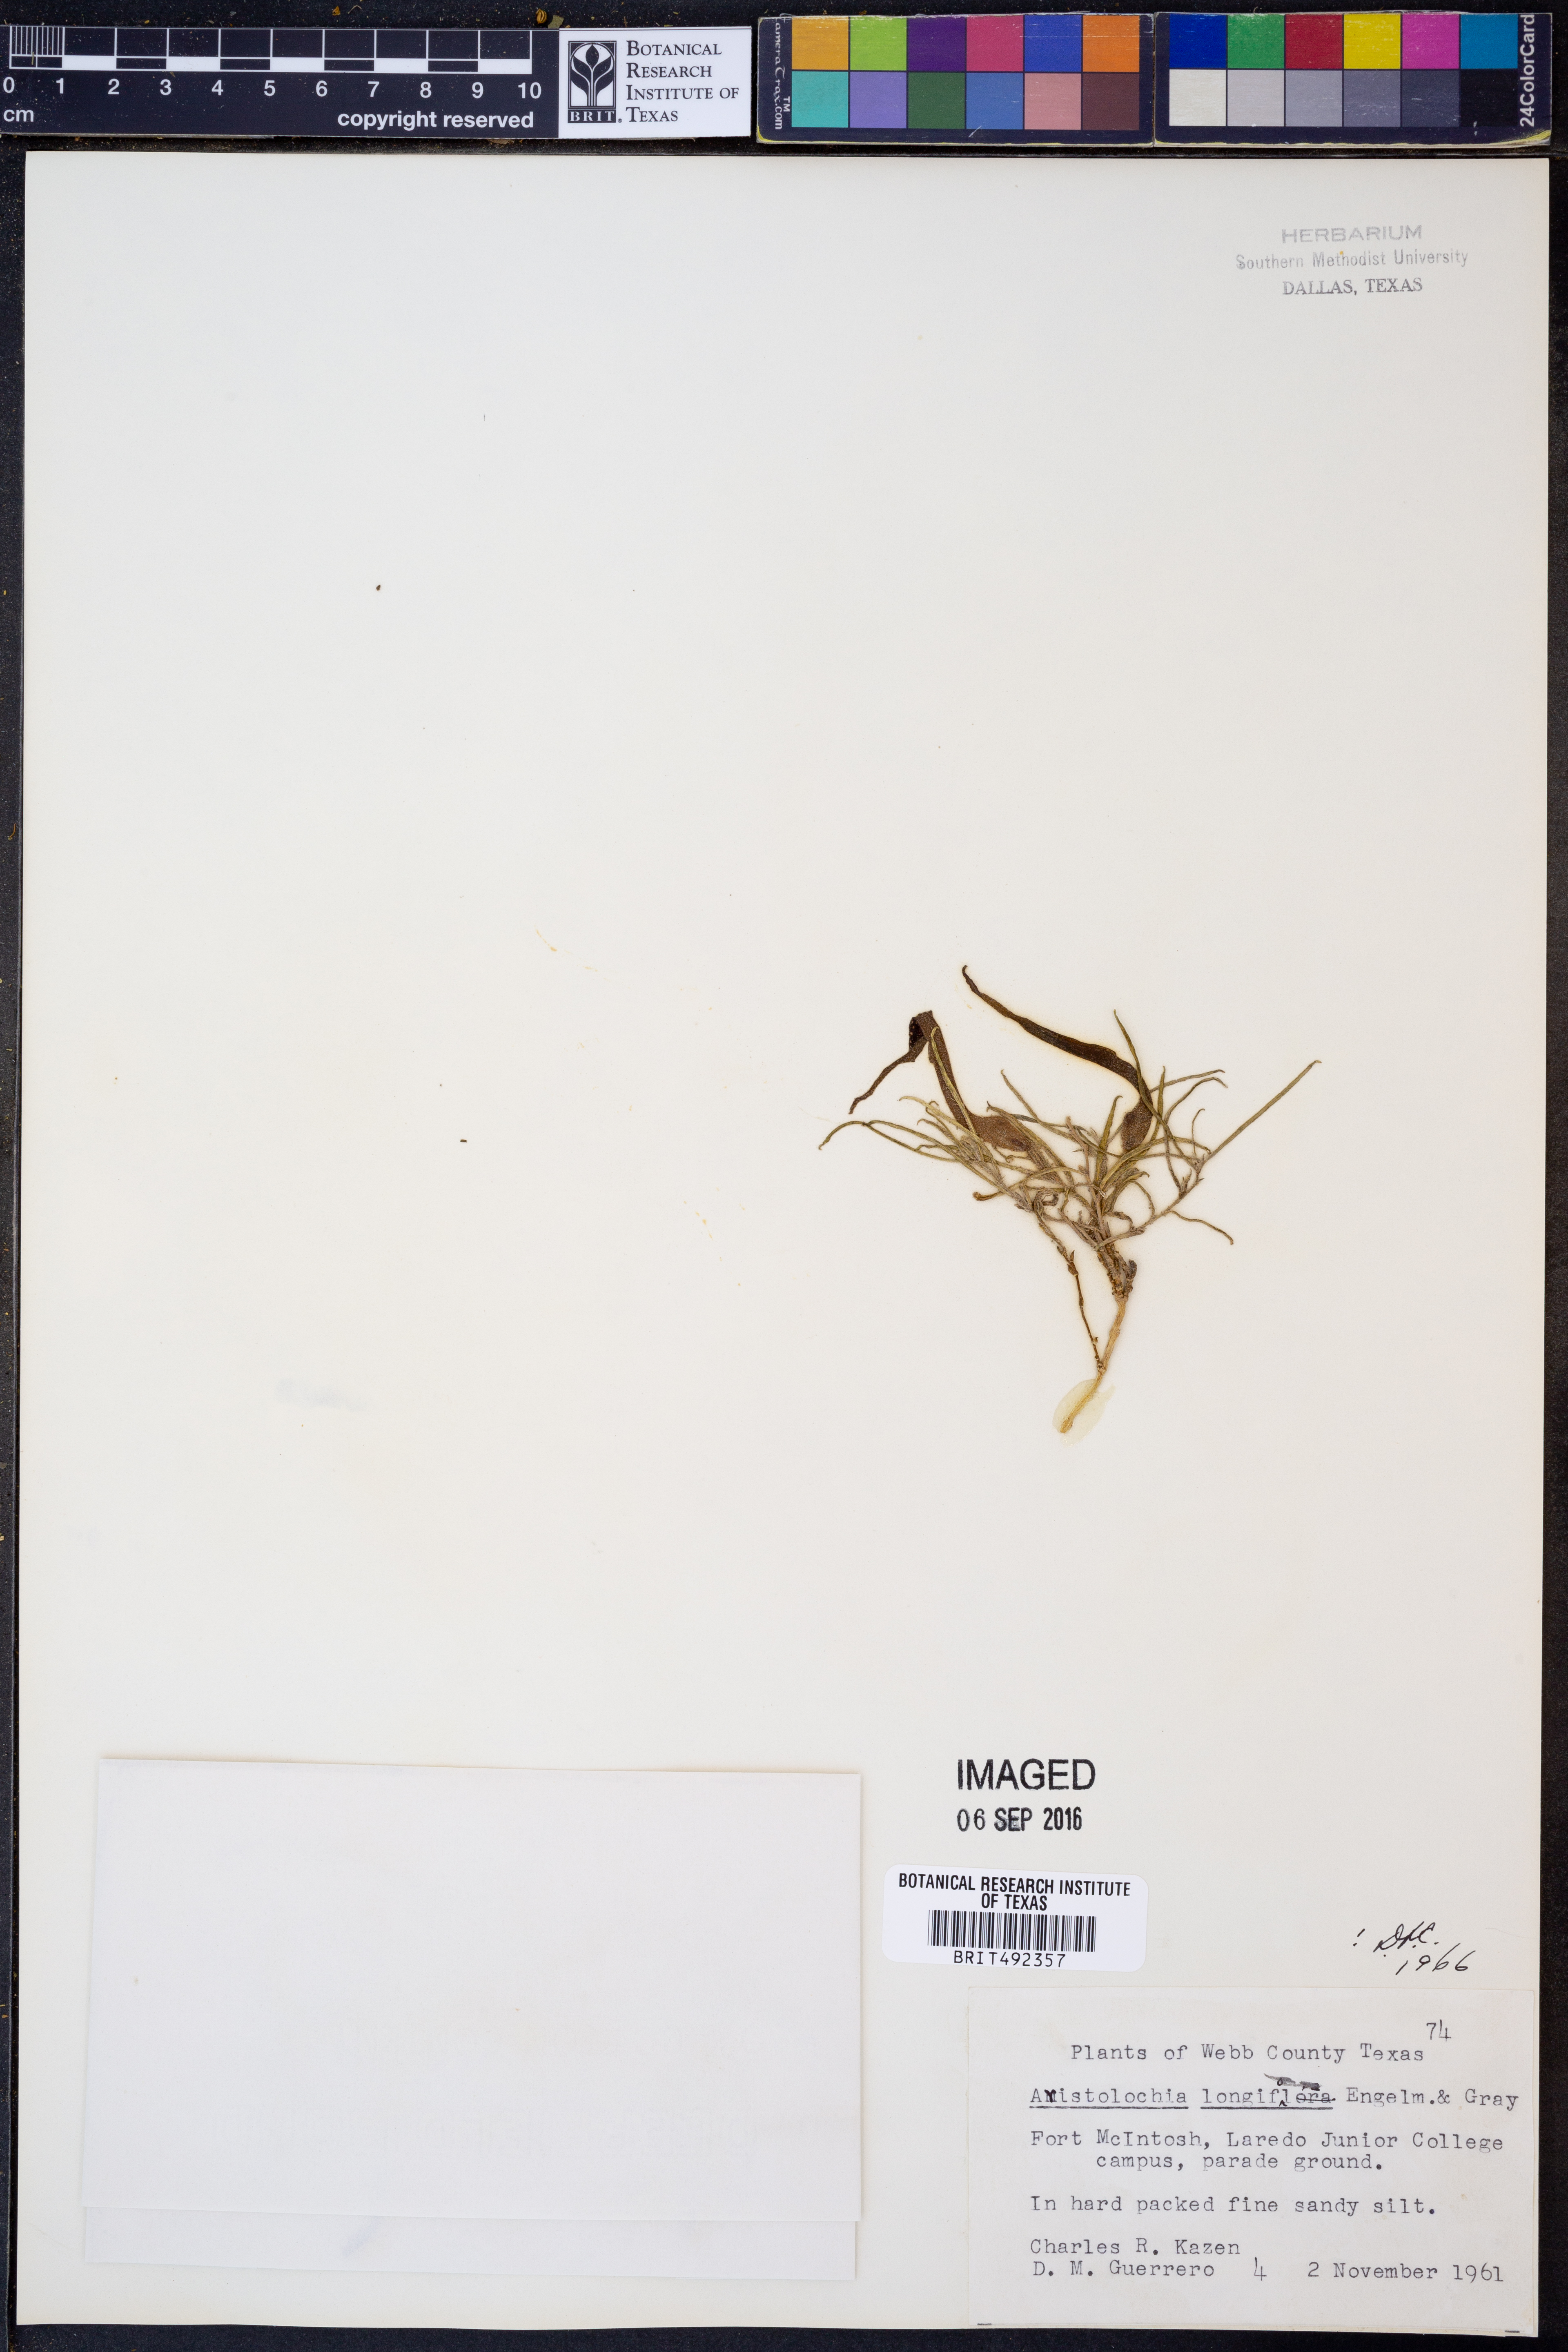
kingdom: Plantae
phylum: Tracheophyta
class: Magnoliopsida
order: Piperales
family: Aristolochiaceae
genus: Aristolochia
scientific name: Aristolochia acuminata
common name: Indian birthwort
